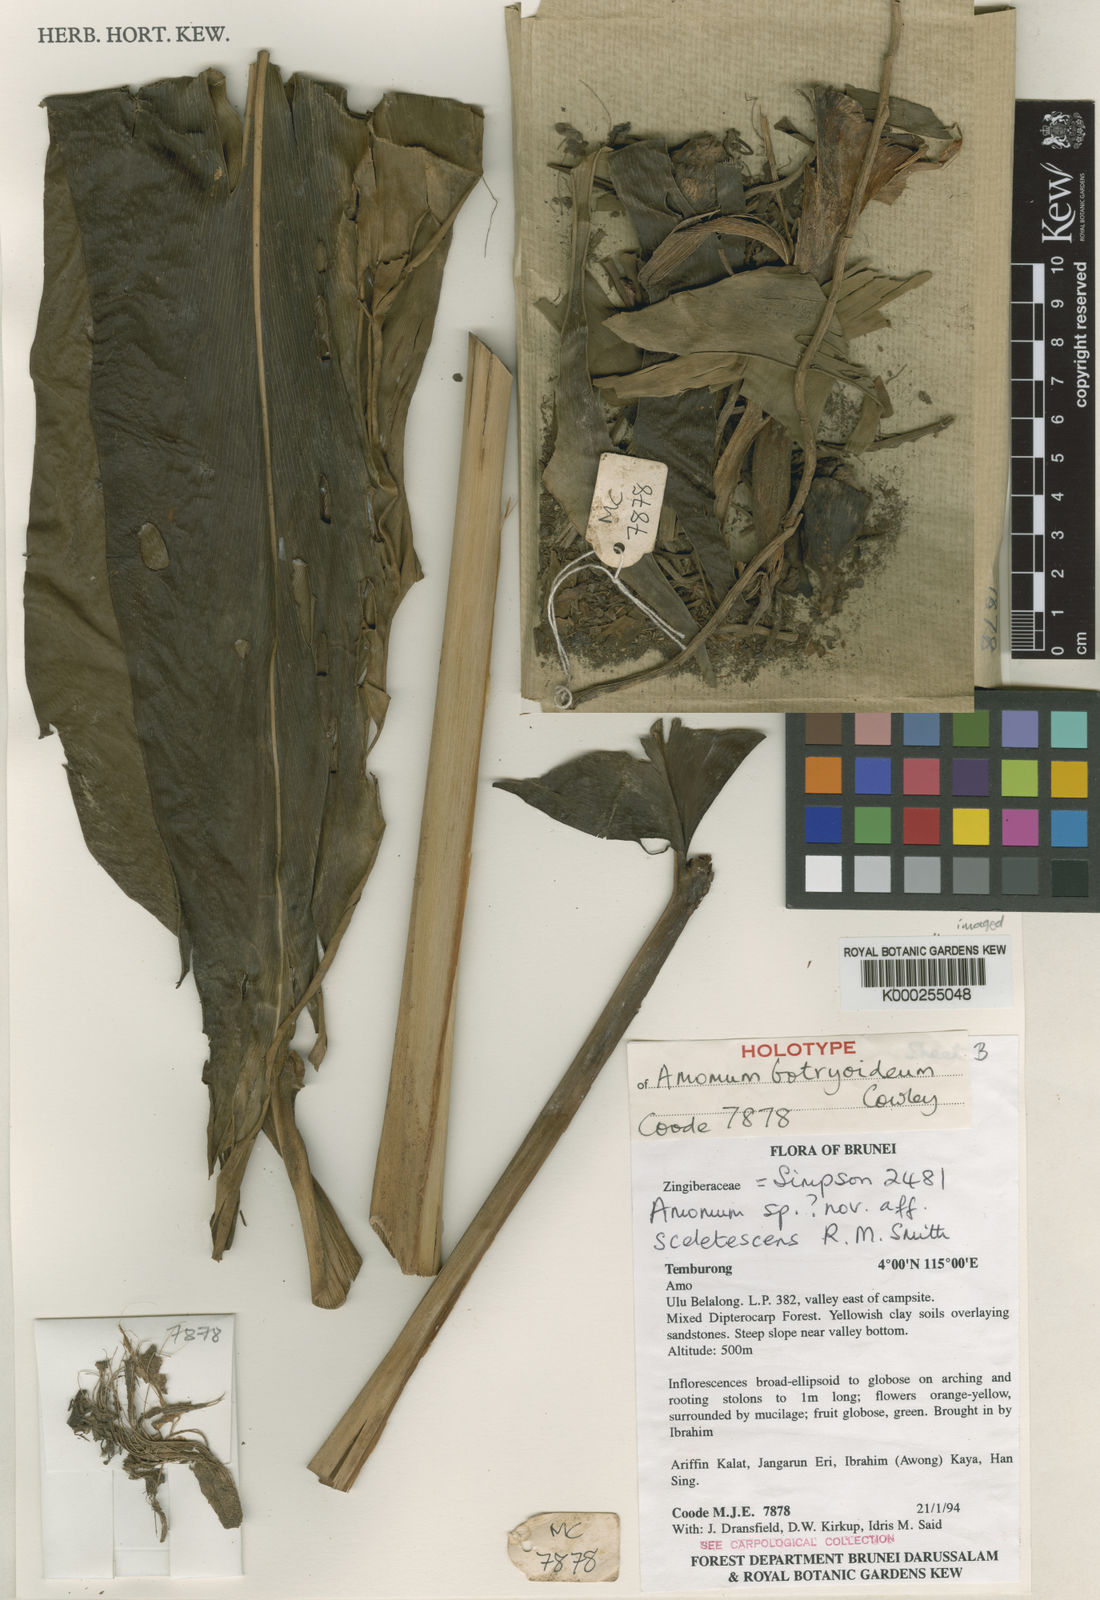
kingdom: Plantae
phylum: Tracheophyta
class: Liliopsida
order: Zingiberales
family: Zingiberaceae
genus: Meistera
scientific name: Meistera botryoidea
